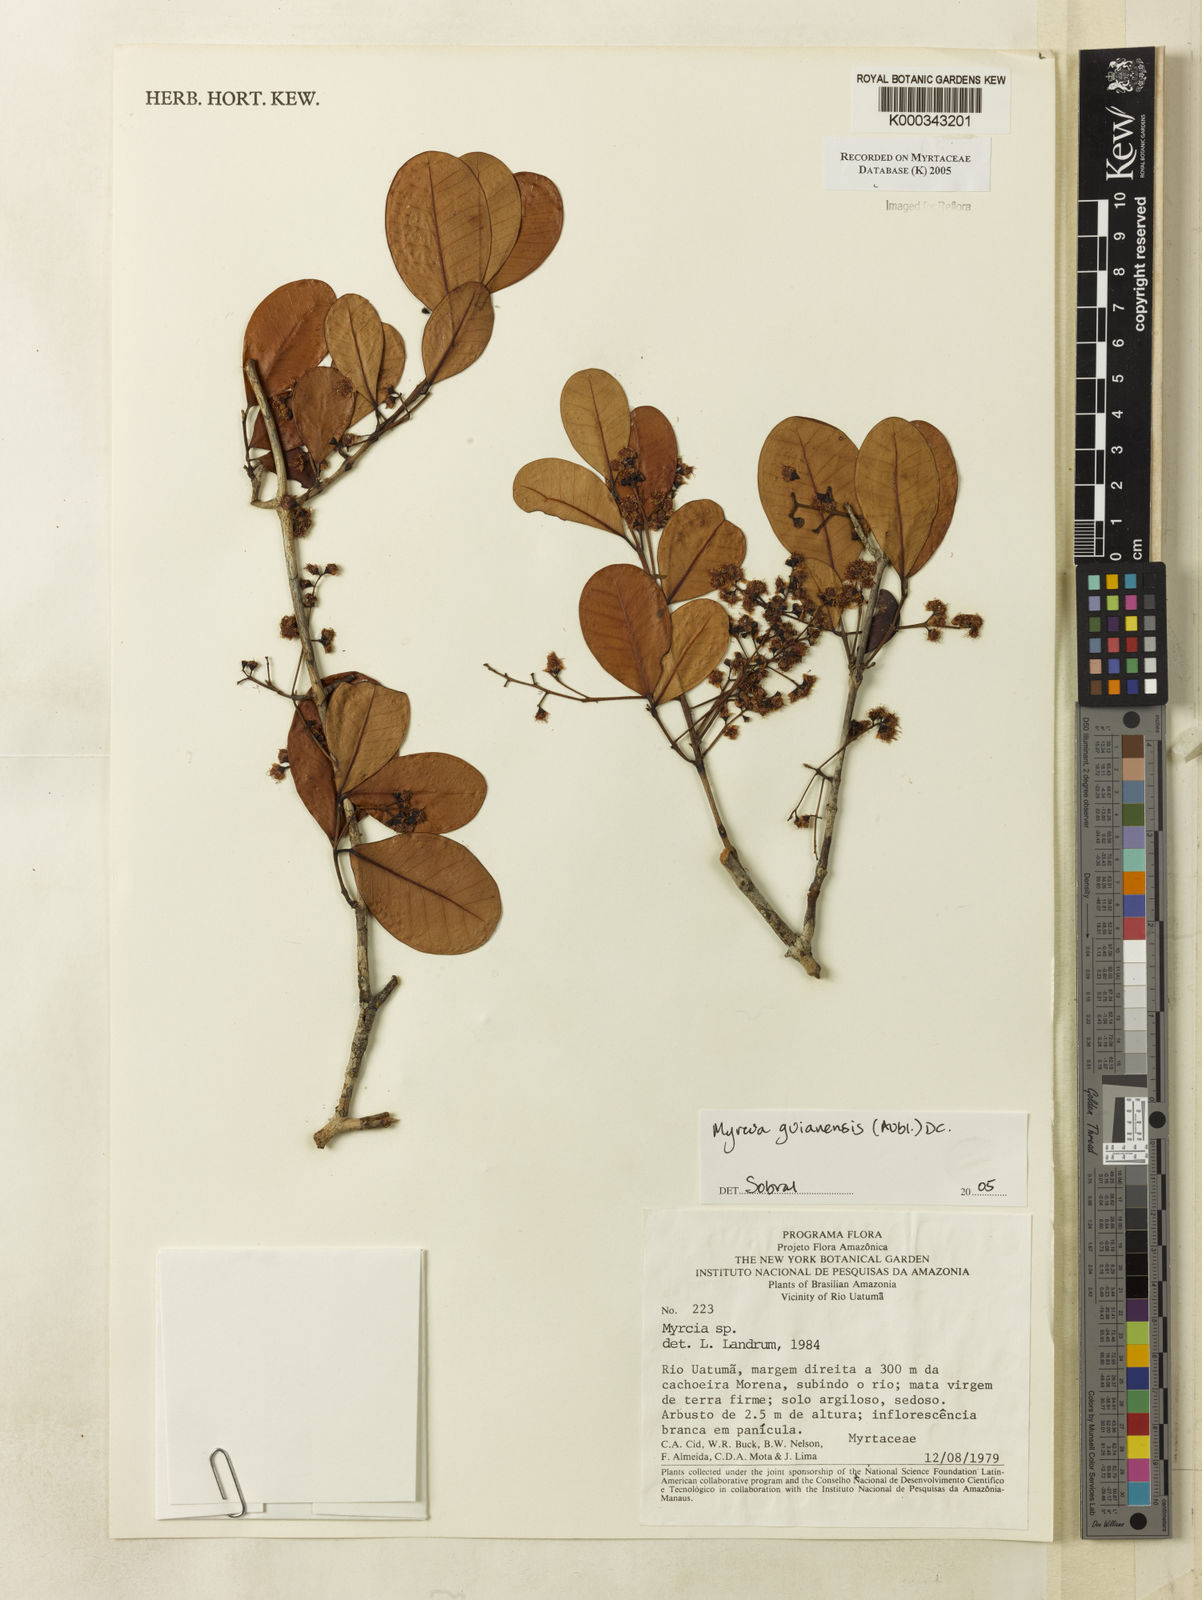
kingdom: Plantae
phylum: Tracheophyta
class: Magnoliopsida
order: Myrtales
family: Myrtaceae
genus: Myrcia
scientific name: Myrcia guianensis
